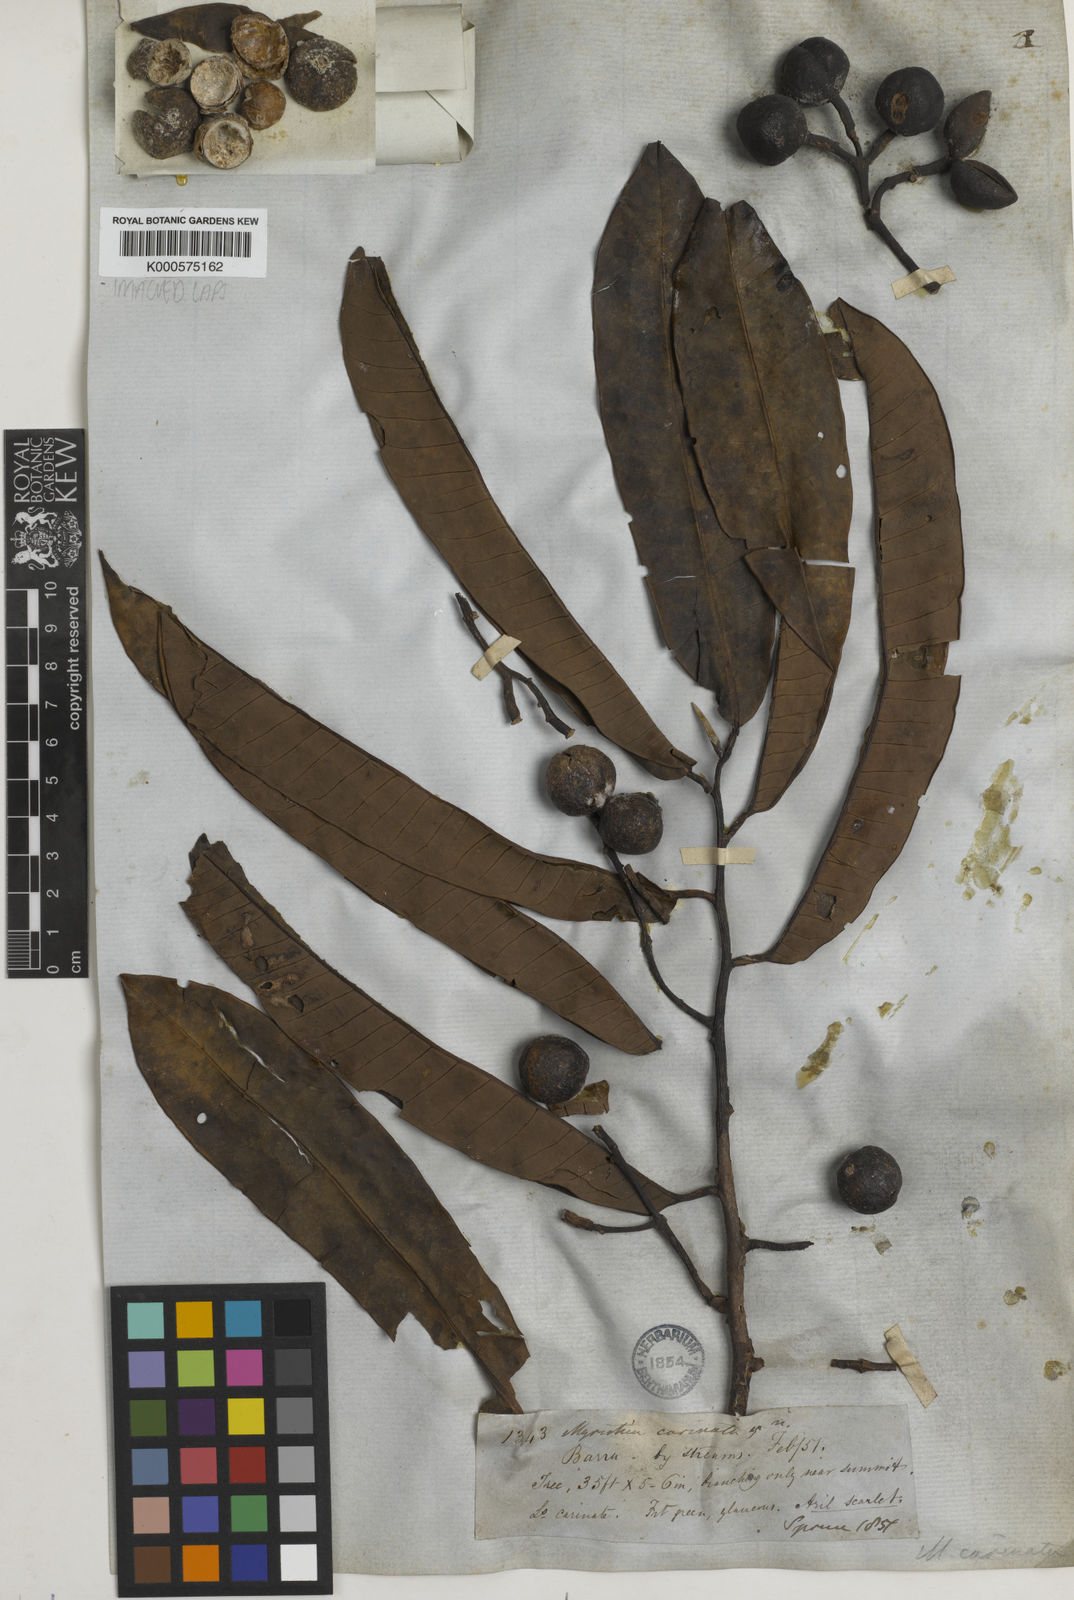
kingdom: Plantae
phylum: Tracheophyta
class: Magnoliopsida
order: Magnoliales
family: Myristicaceae
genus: Virola
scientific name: Virola carinata
